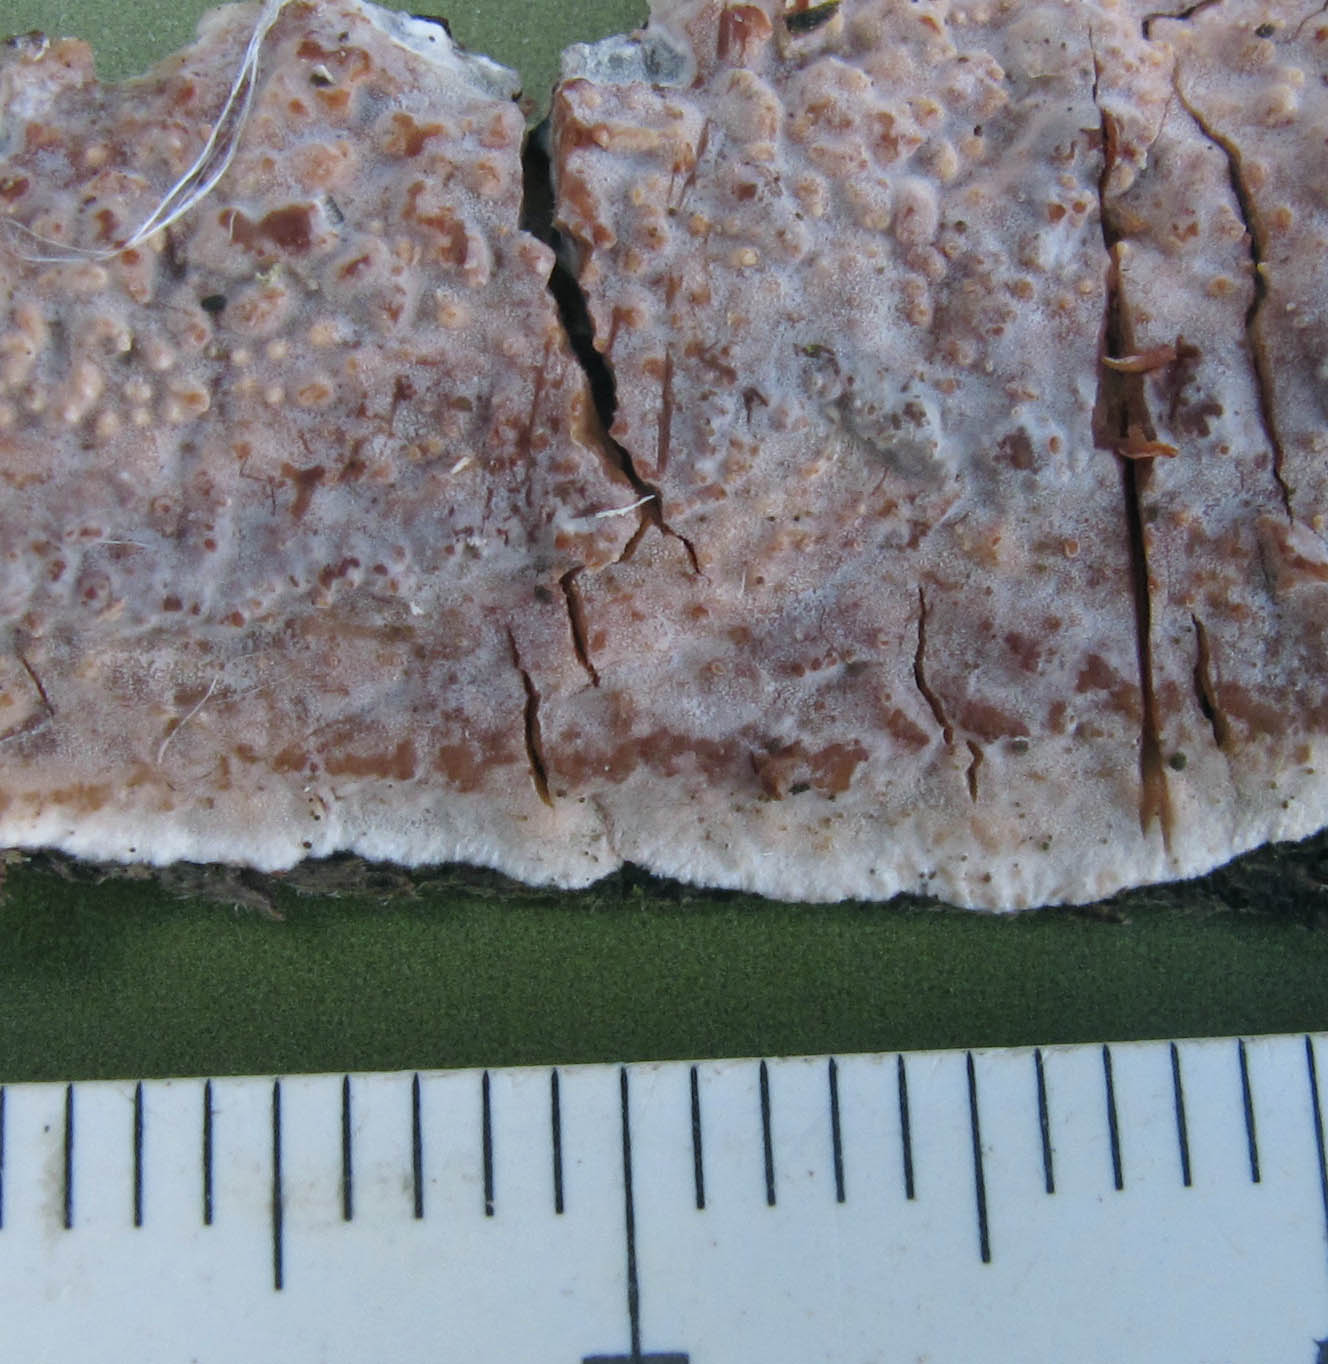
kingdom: Fungi
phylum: Basidiomycota
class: Agaricomycetes
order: Auriculariales
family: Auriculariaceae
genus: Heteroradulum
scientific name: Heteroradulum deglubens
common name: bævreskorpe
